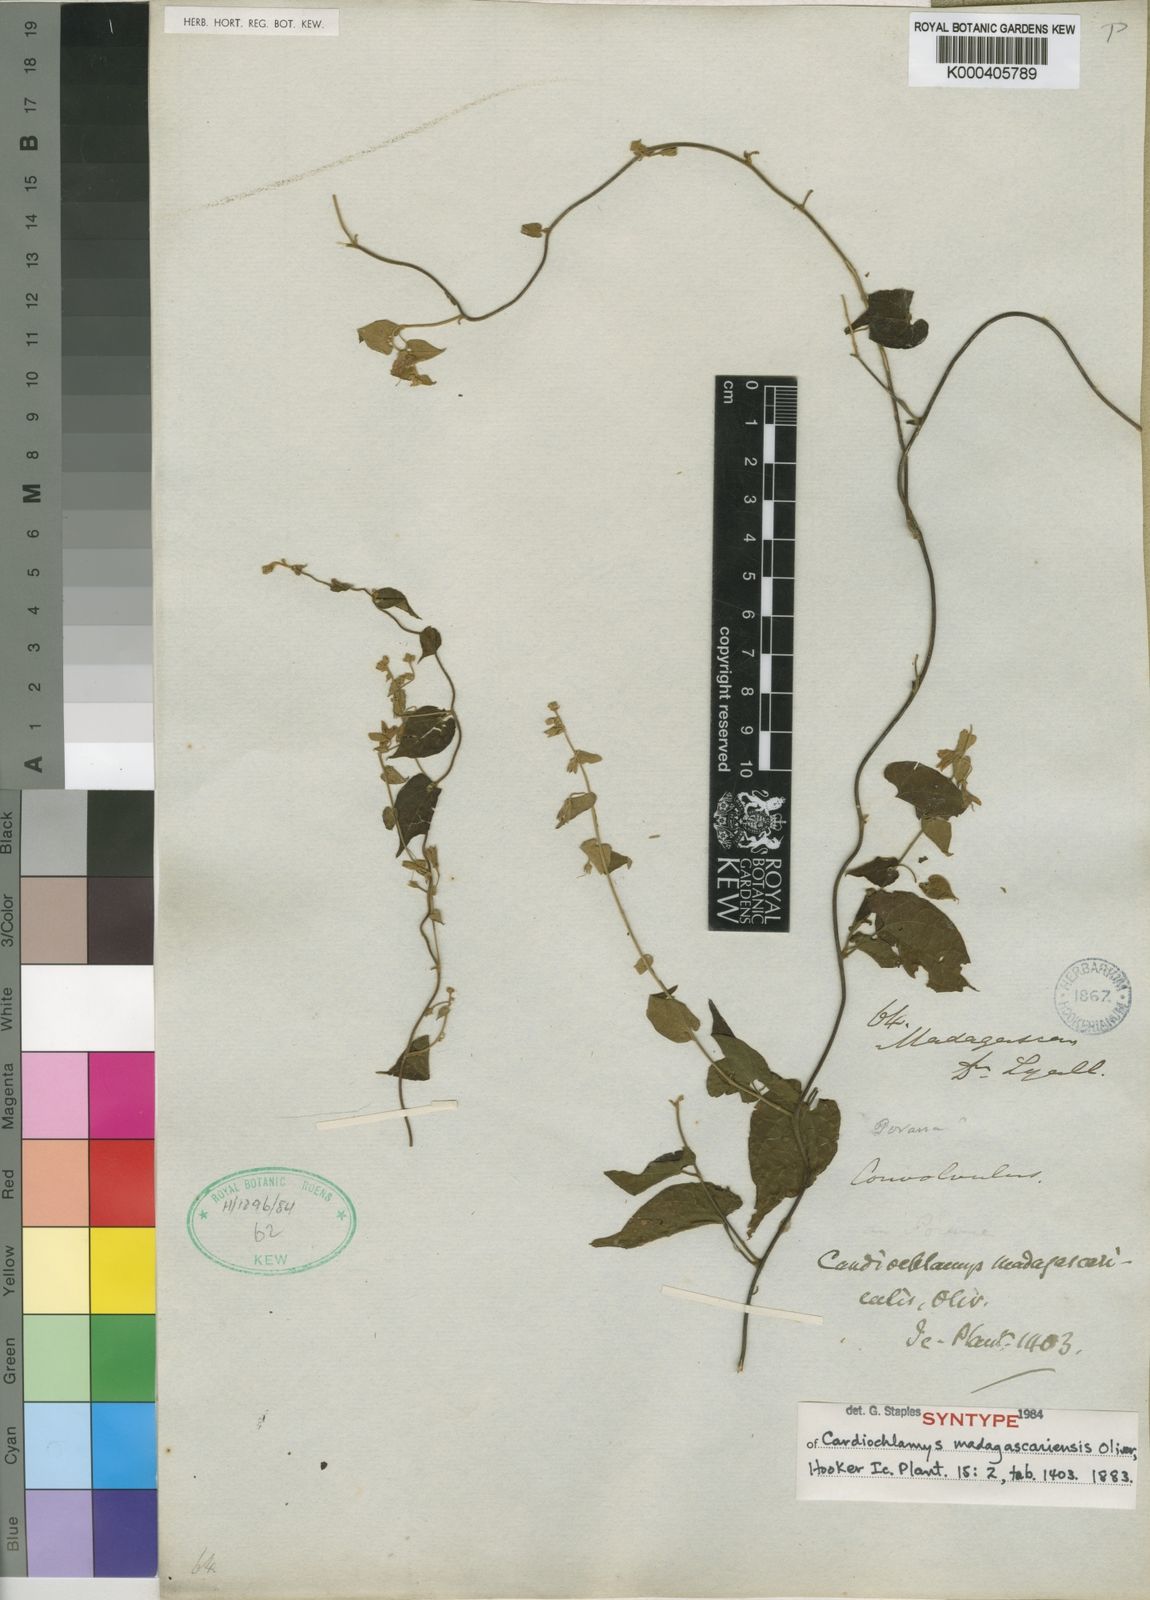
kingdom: Plantae
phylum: Tracheophyta
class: Magnoliopsida
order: Solanales
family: Convolvulaceae
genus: Cardiochlamys
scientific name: Cardiochlamys madagascariensis
